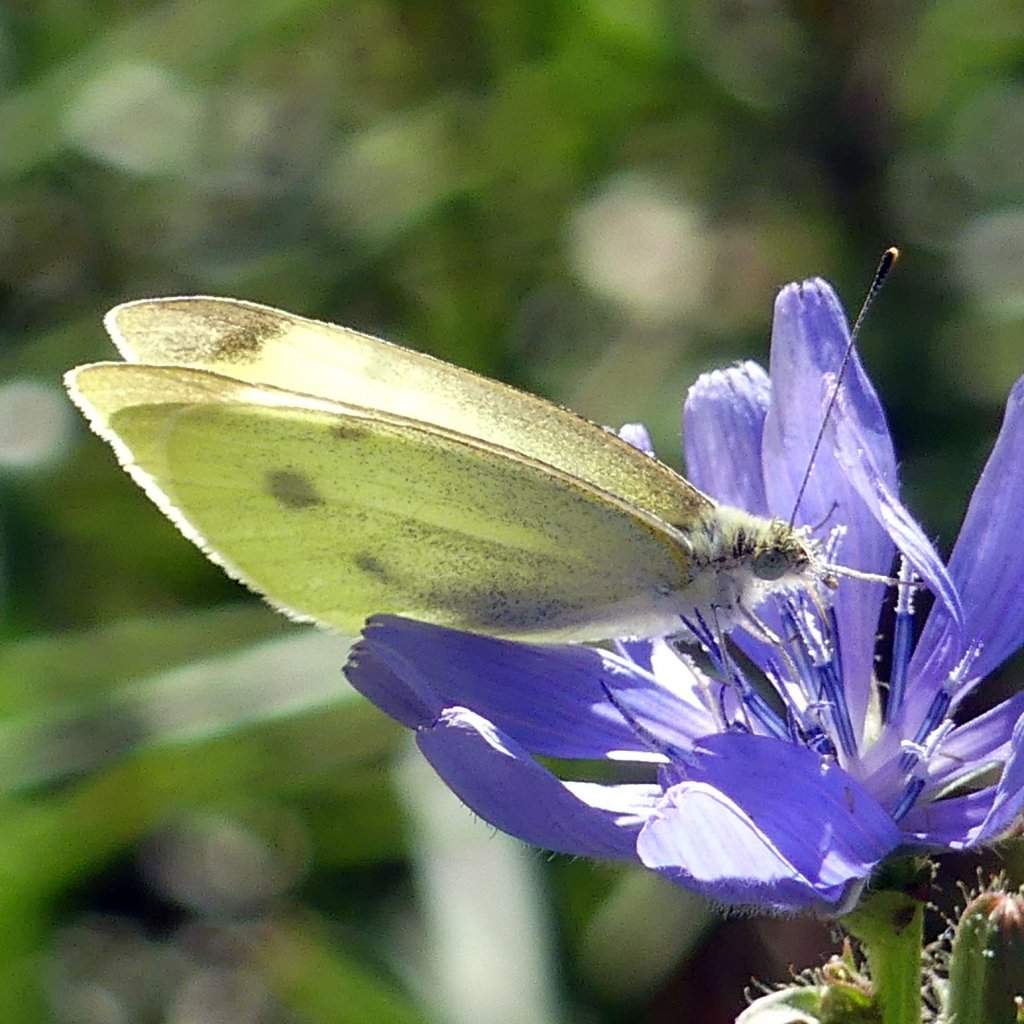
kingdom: Animalia
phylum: Arthropoda
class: Insecta
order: Lepidoptera
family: Pieridae
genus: Pieris
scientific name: Pieris rapae
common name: Cabbage White
